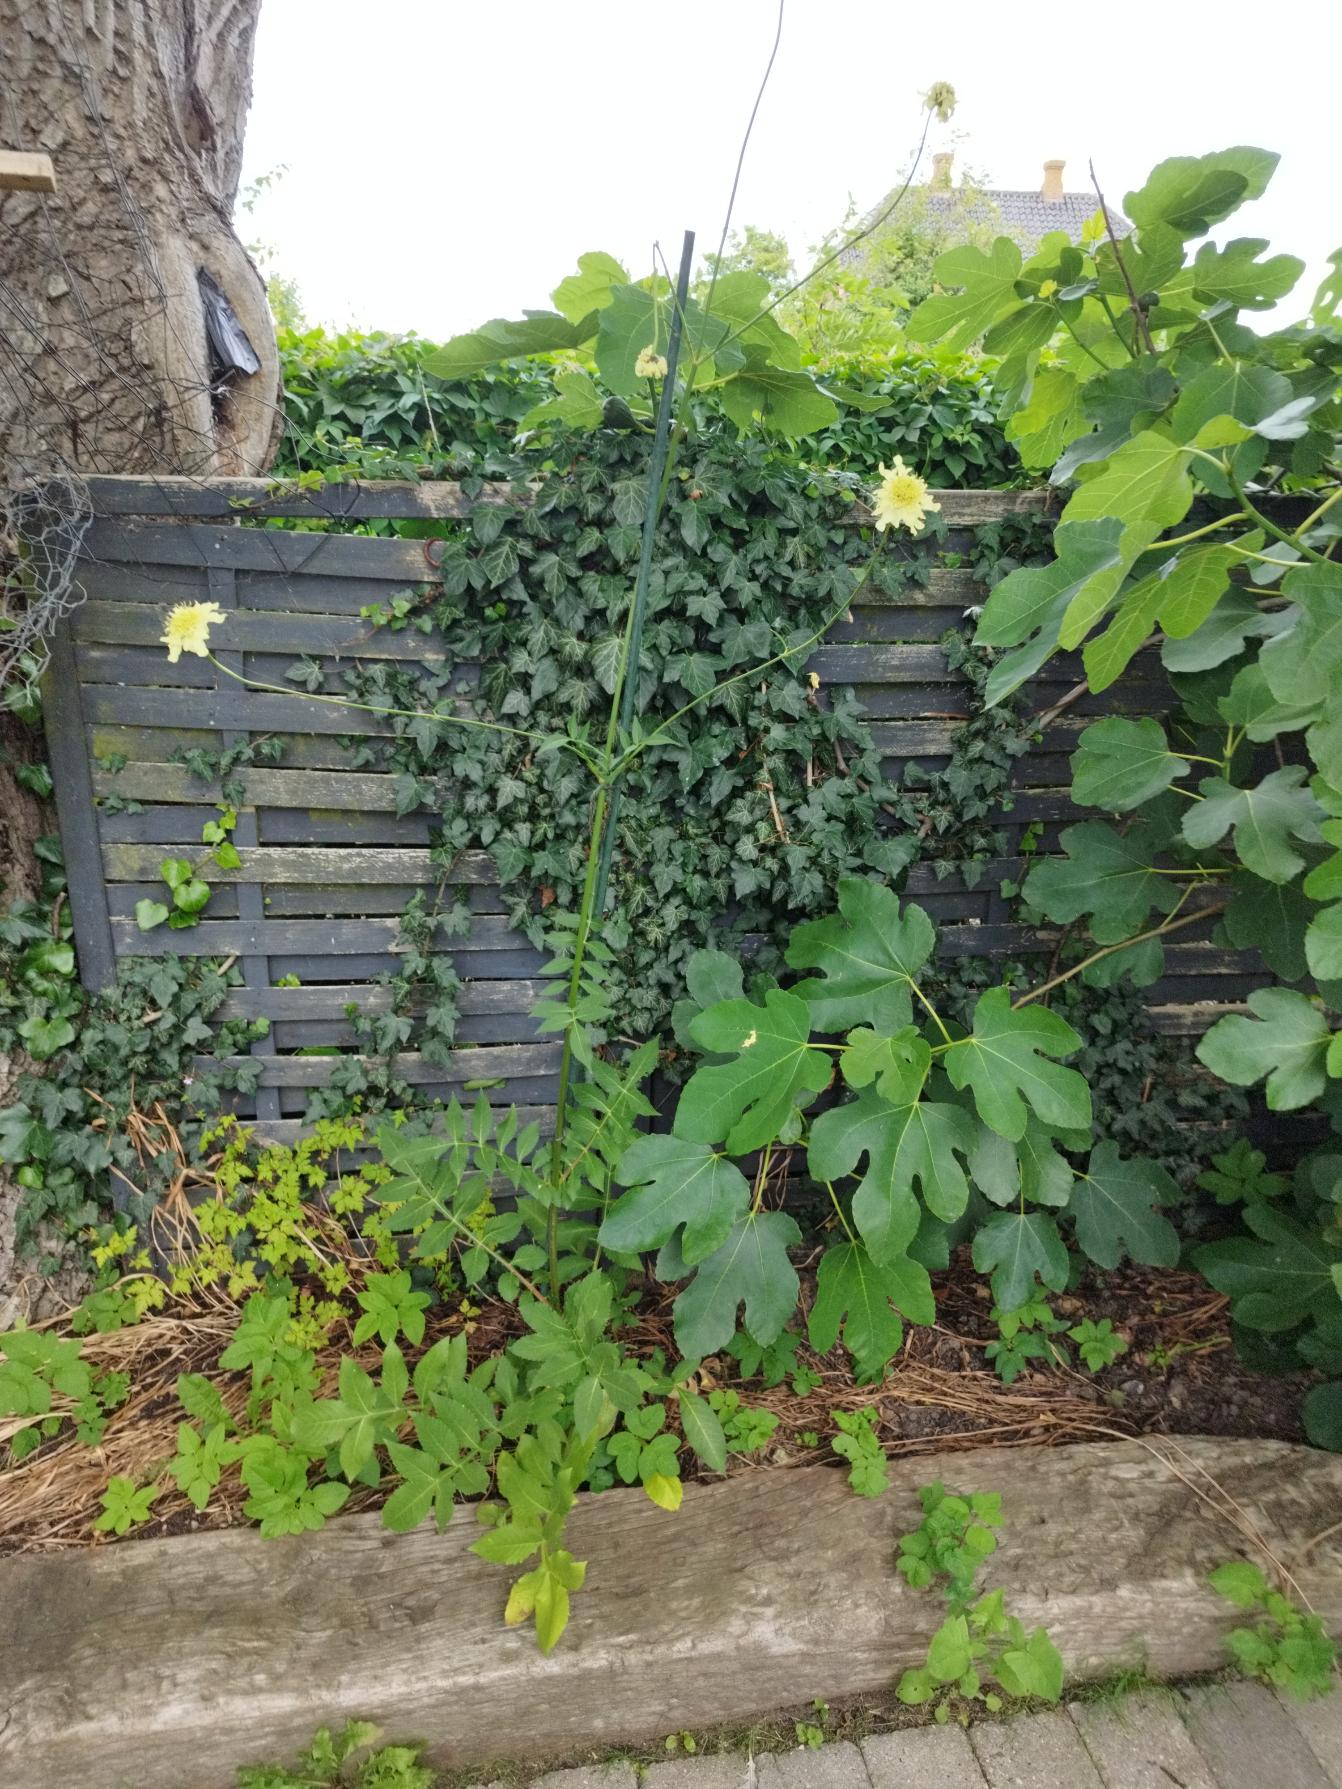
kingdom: Plantae
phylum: Tracheophyta
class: Magnoliopsida
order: Dipsacales
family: Caprifoliaceae
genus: Cephalaria
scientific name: Cephalaria gigantea
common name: Stor skælhoved
